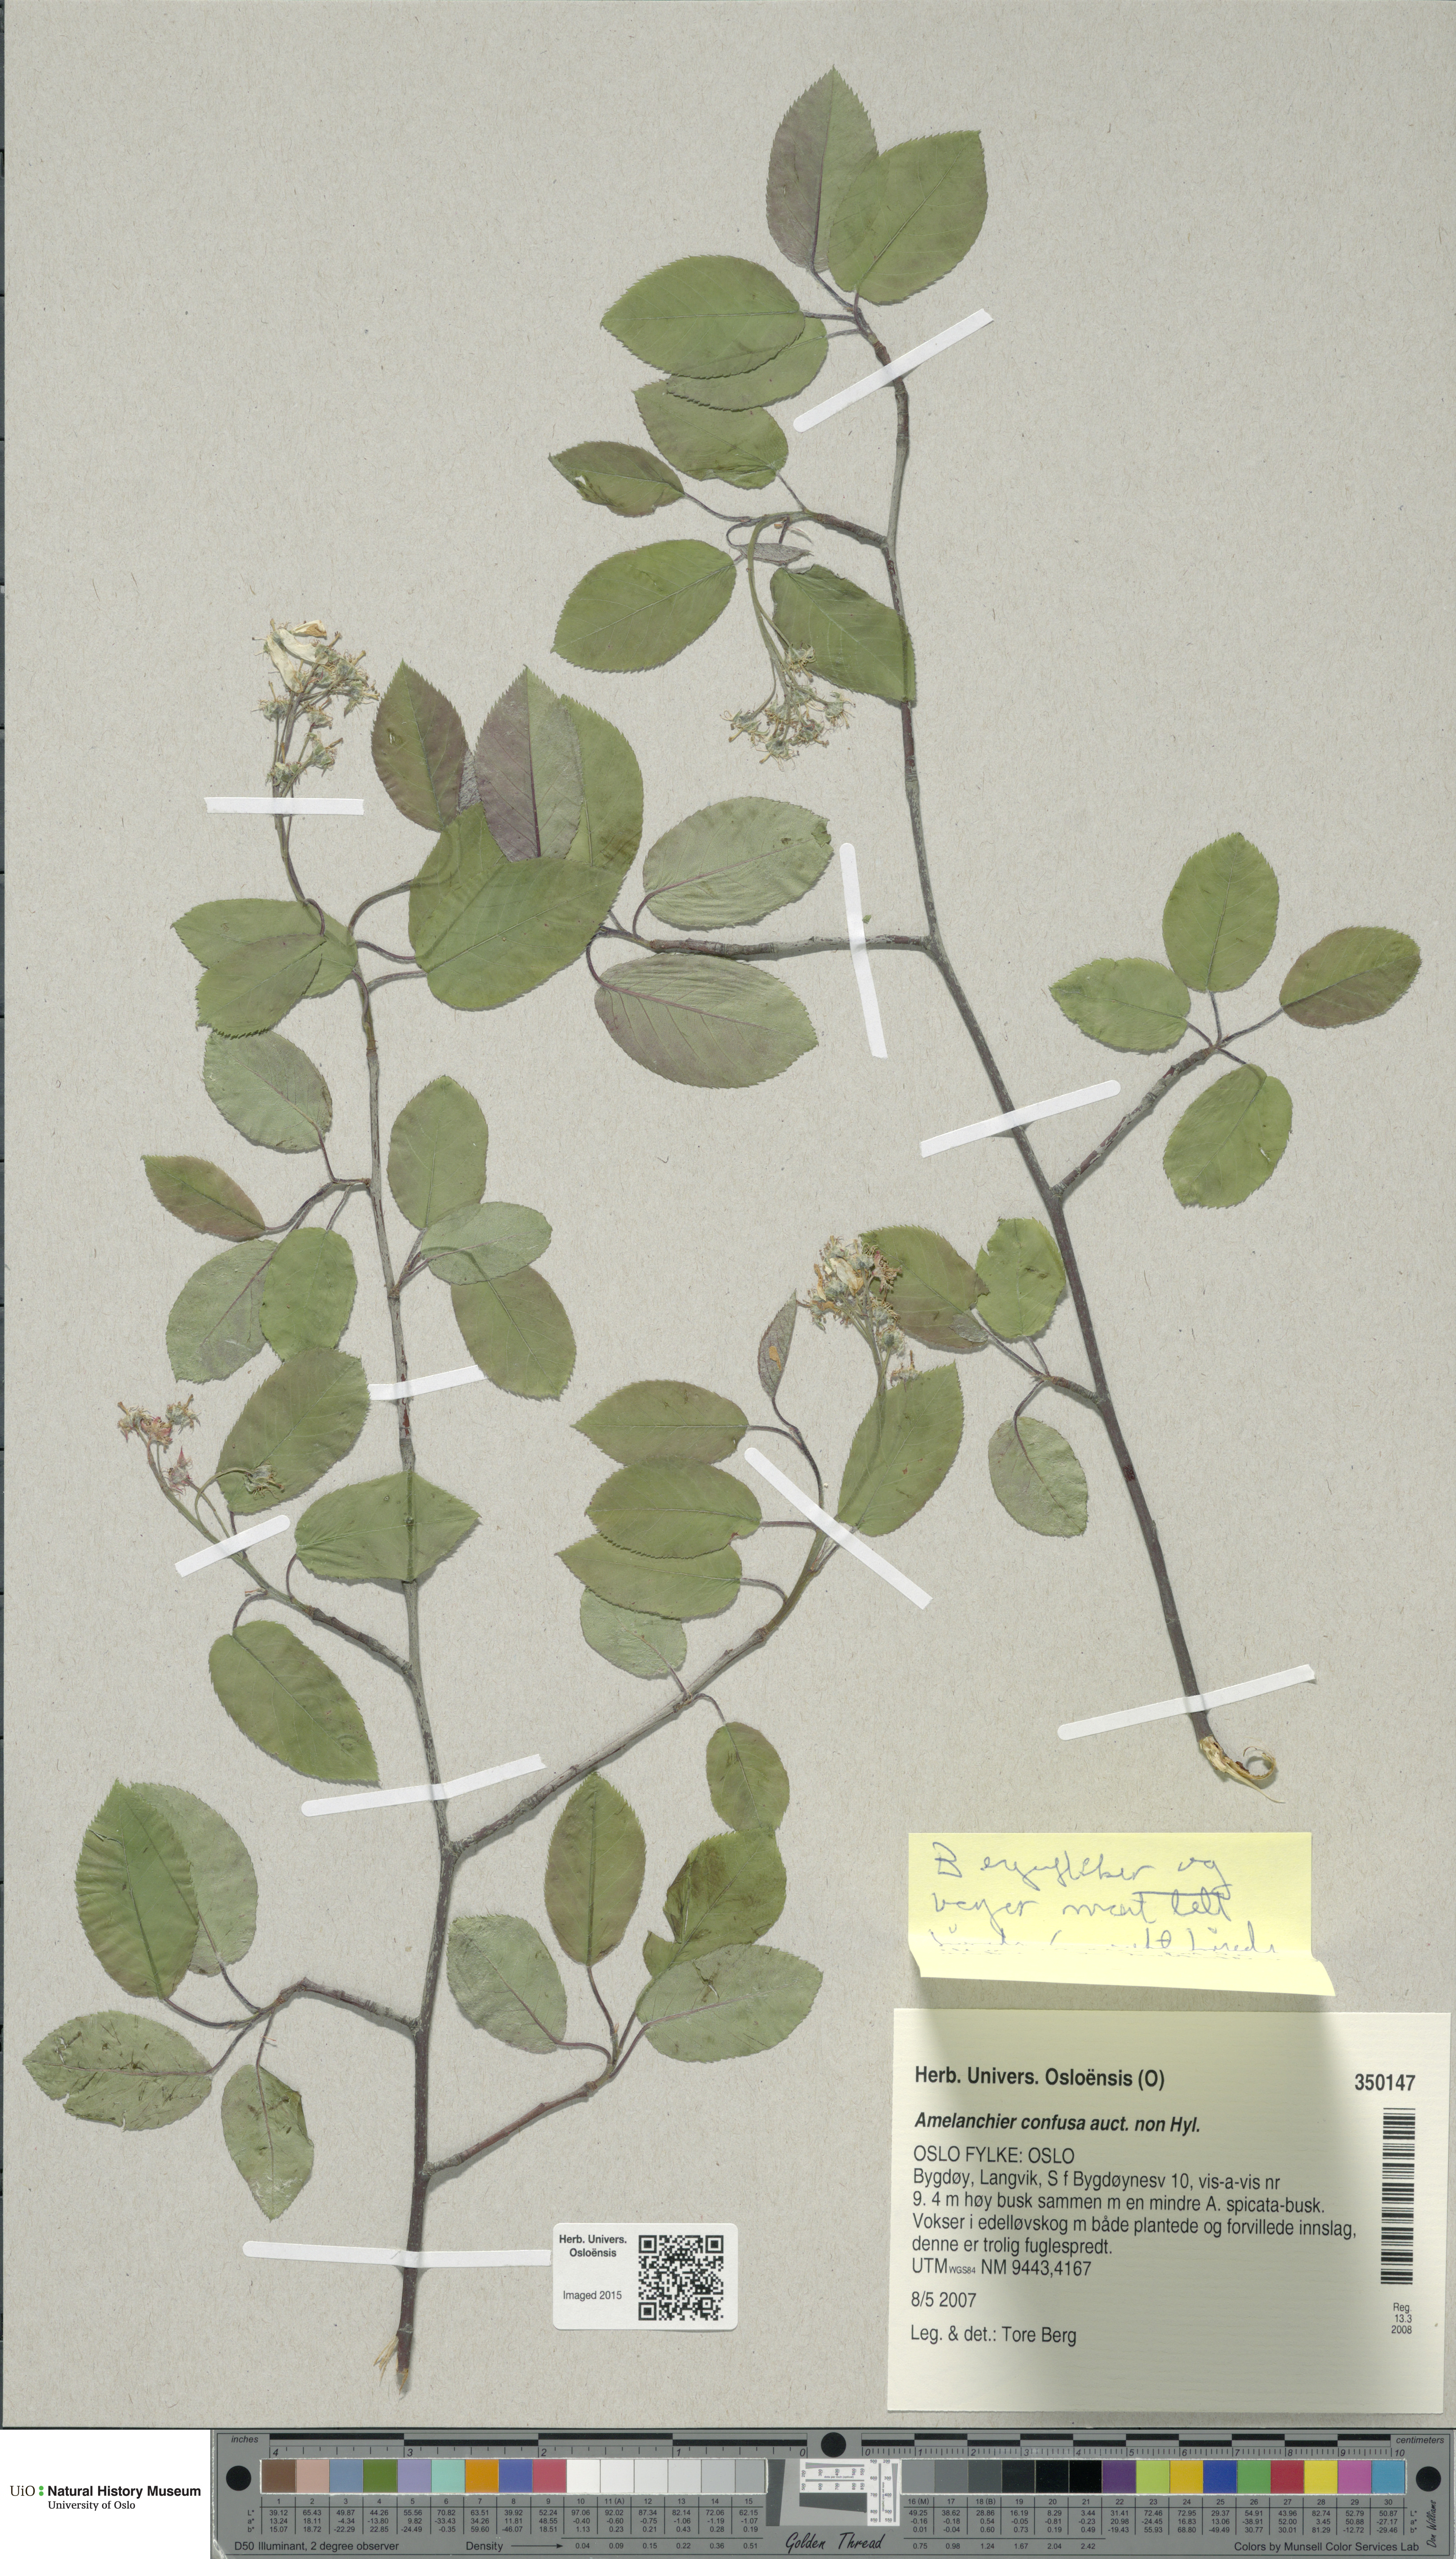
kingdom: Plantae
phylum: Tracheophyta
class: Magnoliopsida
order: Rosales
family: Rosaceae
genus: Amelanchier
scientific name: Amelanchier lamarckii
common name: Juneberry
